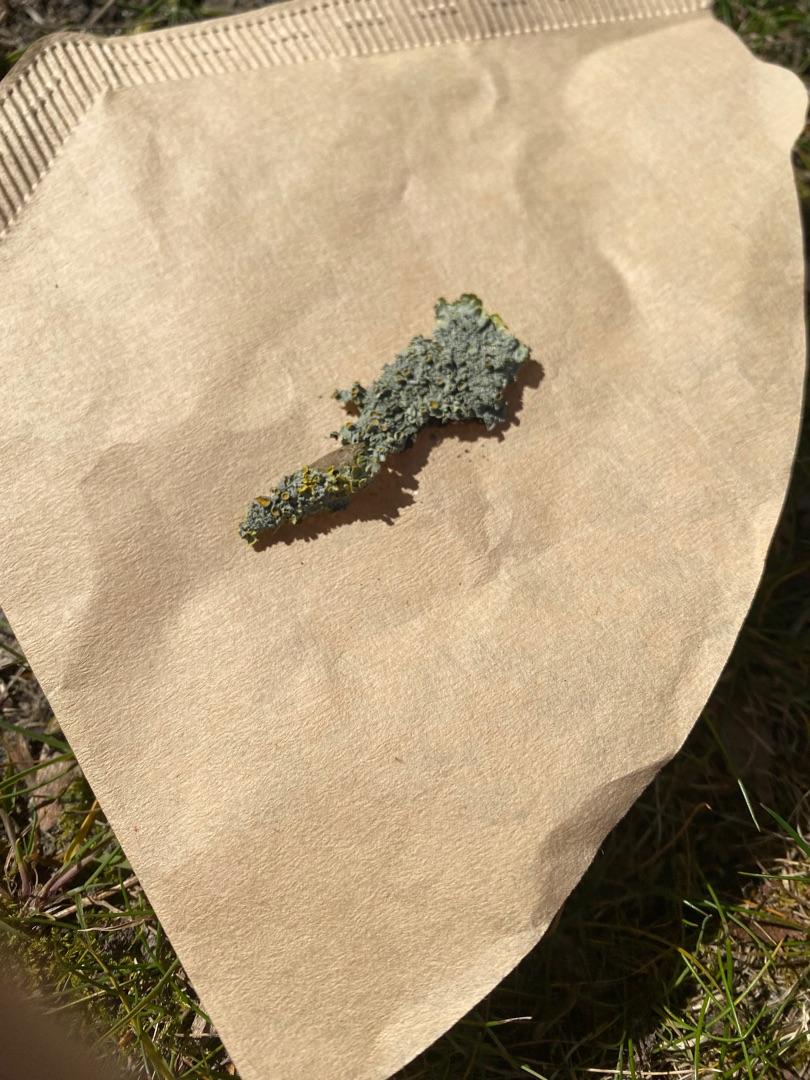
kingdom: Fungi
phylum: Ascomycota
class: Lecanoromycetes
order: Teloschistales
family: Teloschistaceae
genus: Xanthoria
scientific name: Xanthoria parietina
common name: Almindelig væggelav
